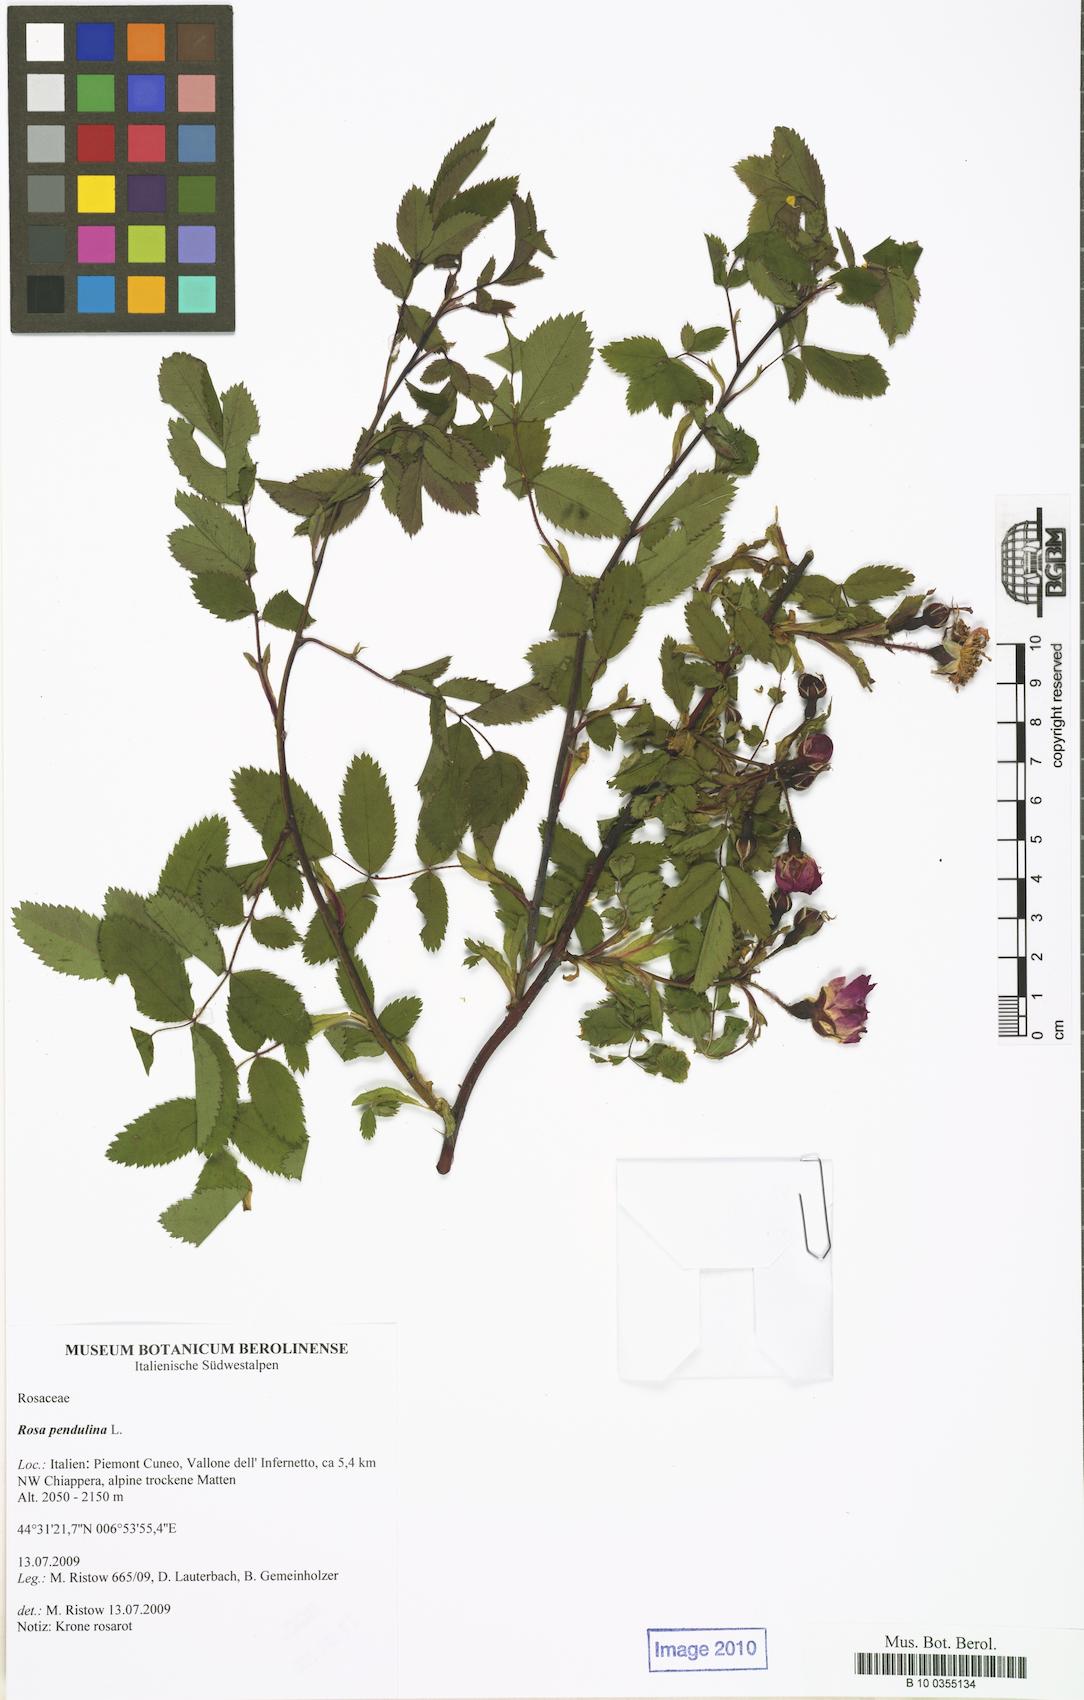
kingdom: Plantae
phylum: Tracheophyta
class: Magnoliopsida
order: Rosales
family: Rosaceae
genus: Rosa
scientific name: Rosa pendulina
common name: Alpine rose
